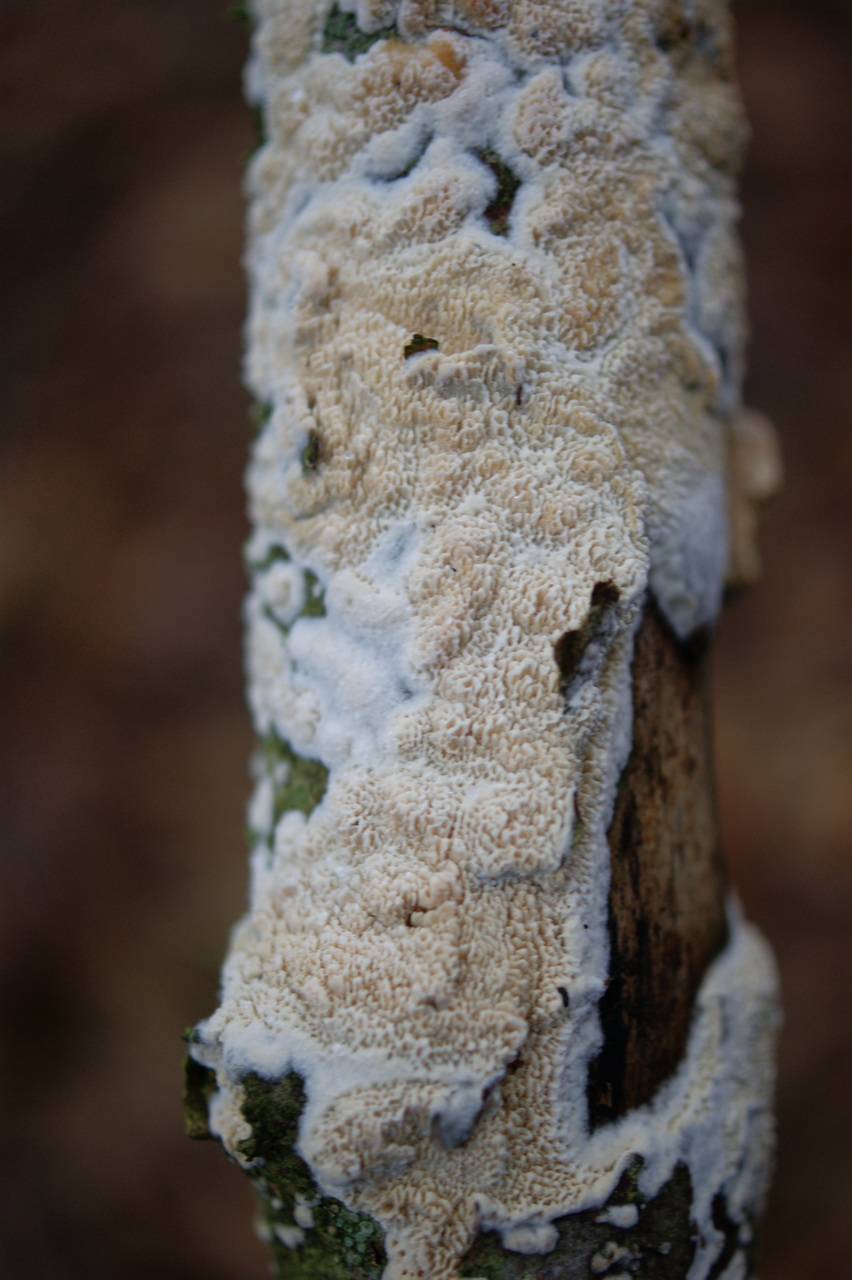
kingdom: Fungi
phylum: Basidiomycota
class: Agaricomycetes
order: Hymenochaetales
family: Schizoporaceae
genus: Schizopora
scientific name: Schizopora paradoxa
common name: hvid tandsvamp
